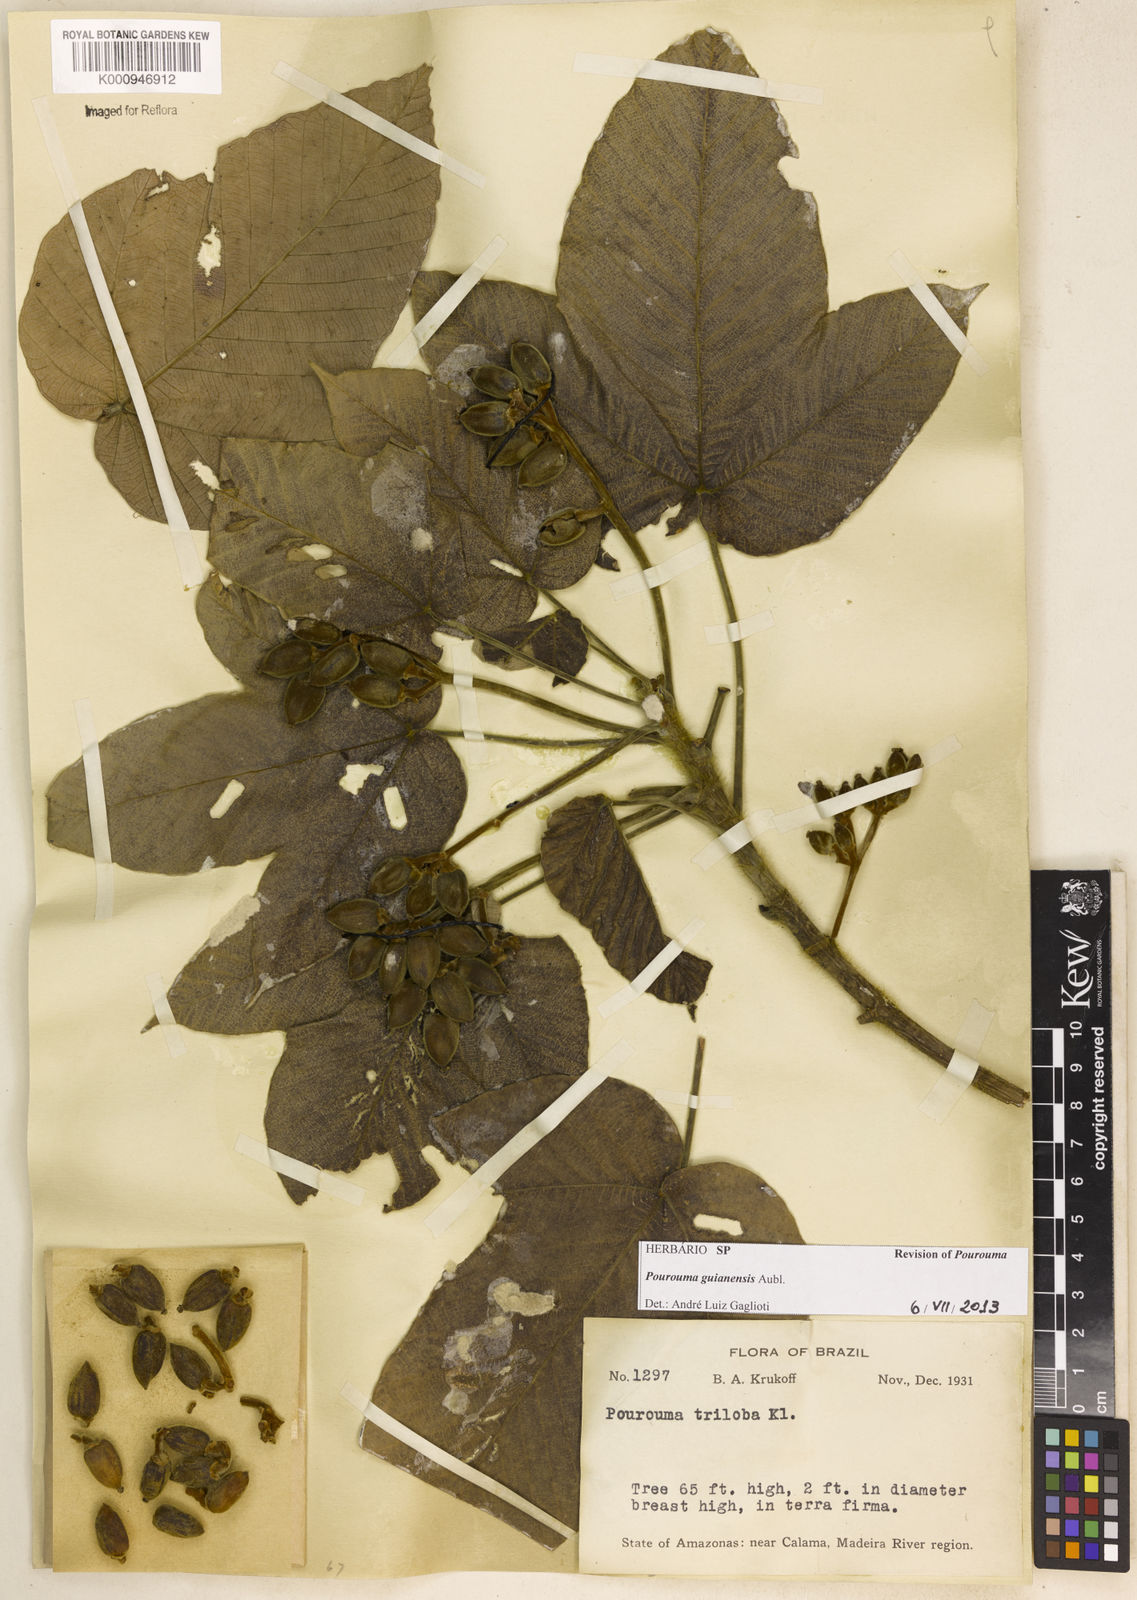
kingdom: Plantae
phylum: Tracheophyta
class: Magnoliopsida
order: Rosales
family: Urticaceae
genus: Pourouma
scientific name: Pourouma guianensis
